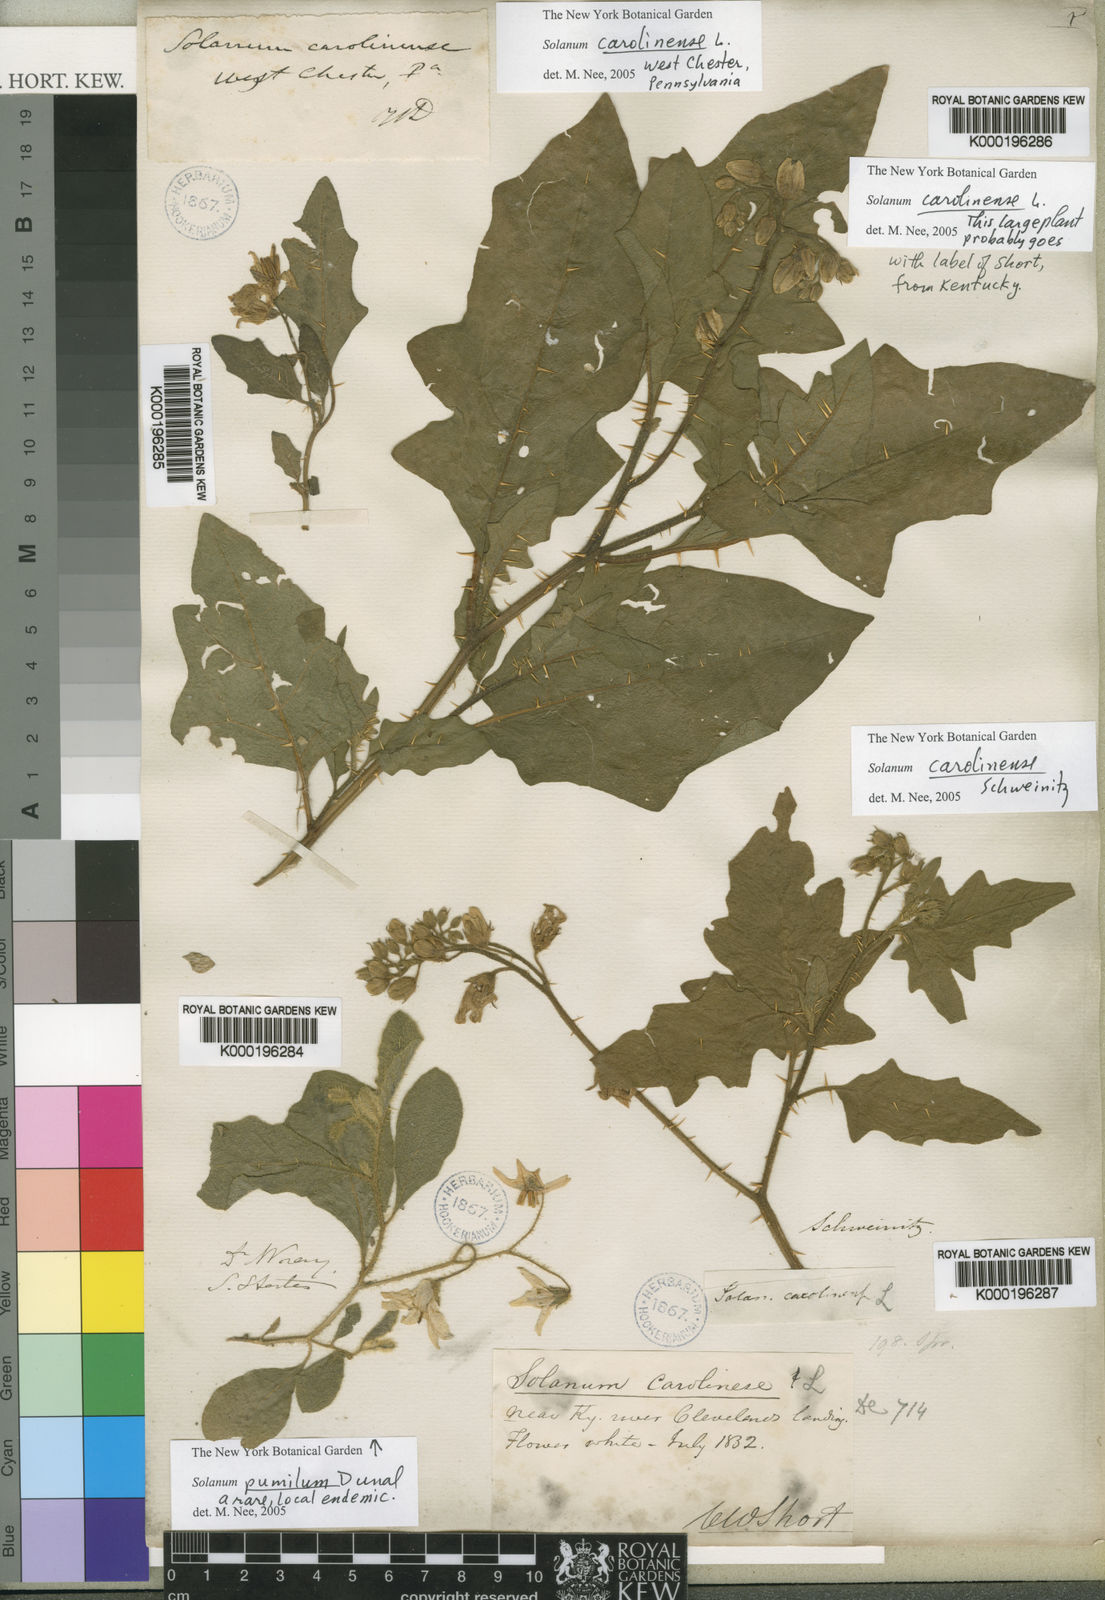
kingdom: Plantae
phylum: Tracheophyta
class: Magnoliopsida
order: Solanales
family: Solanaceae
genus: Solanum
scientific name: Solanum
